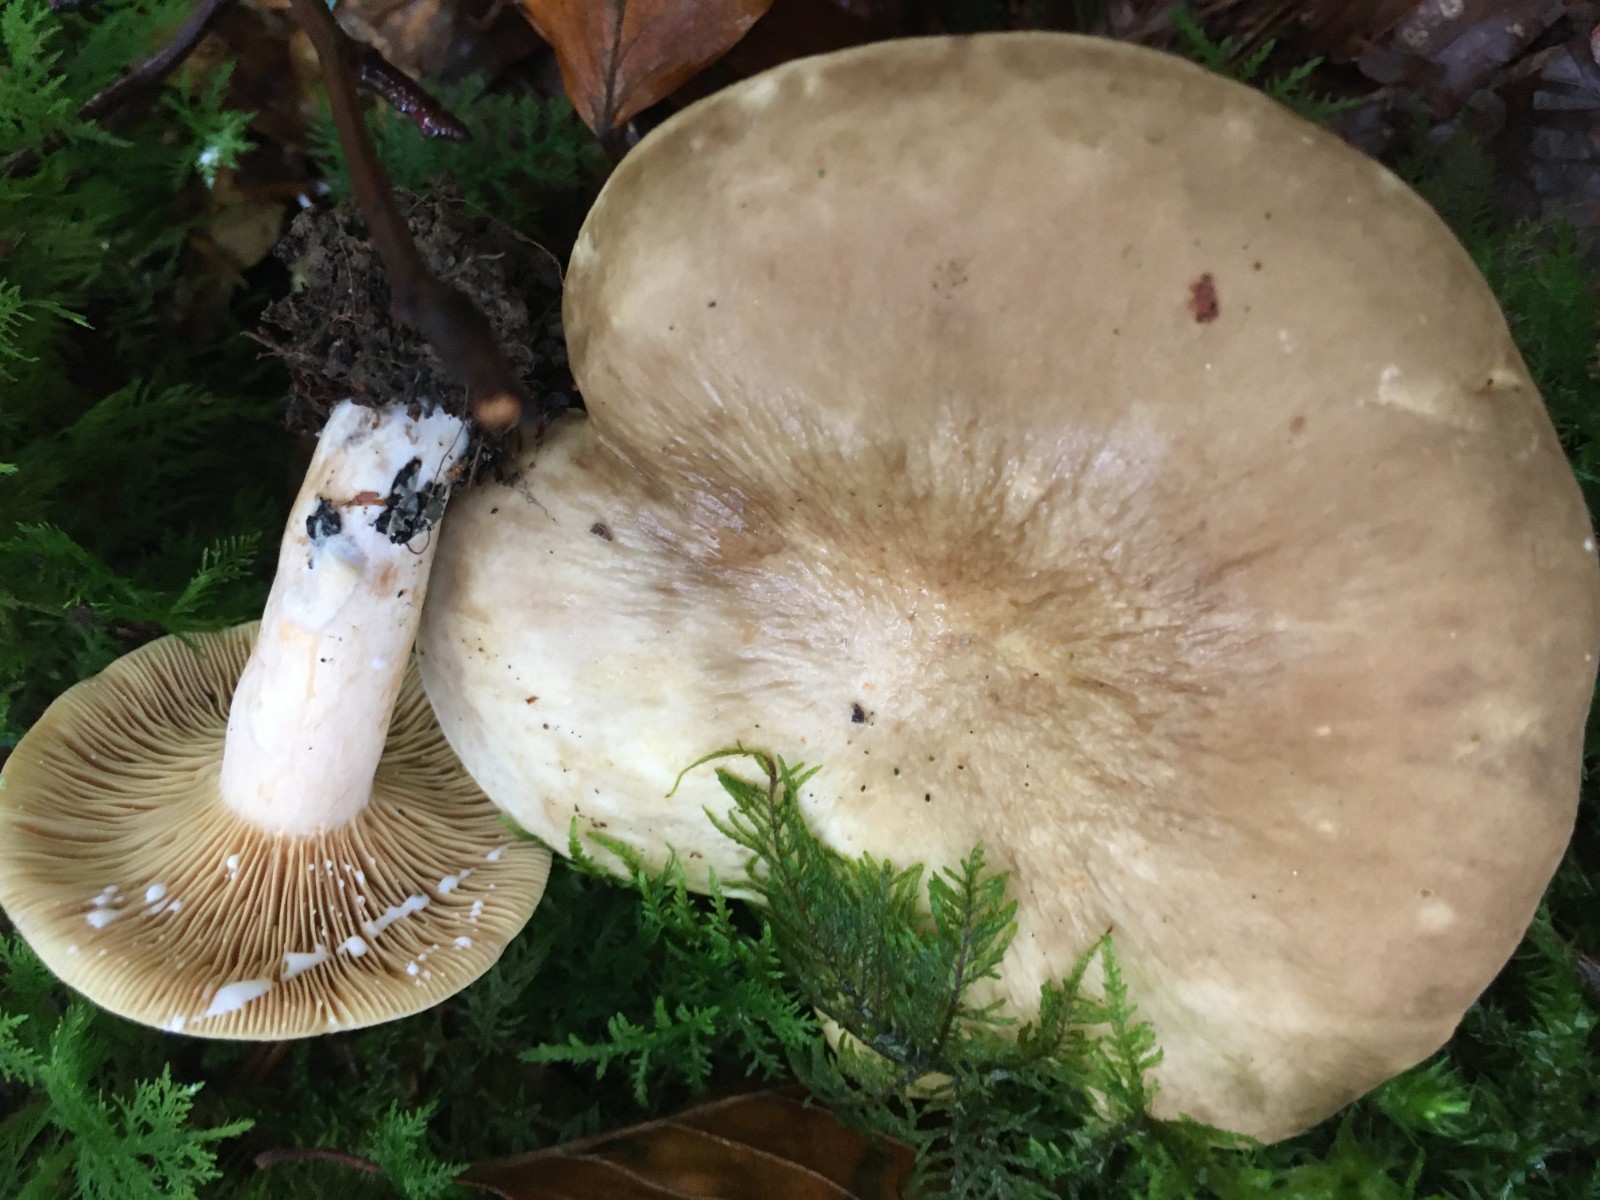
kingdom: Fungi
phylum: Basidiomycota
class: Agaricomycetes
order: Russulales
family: Russulaceae
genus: Lactarius
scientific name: Lactarius pterosporus
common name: vingesporet mælkehat
